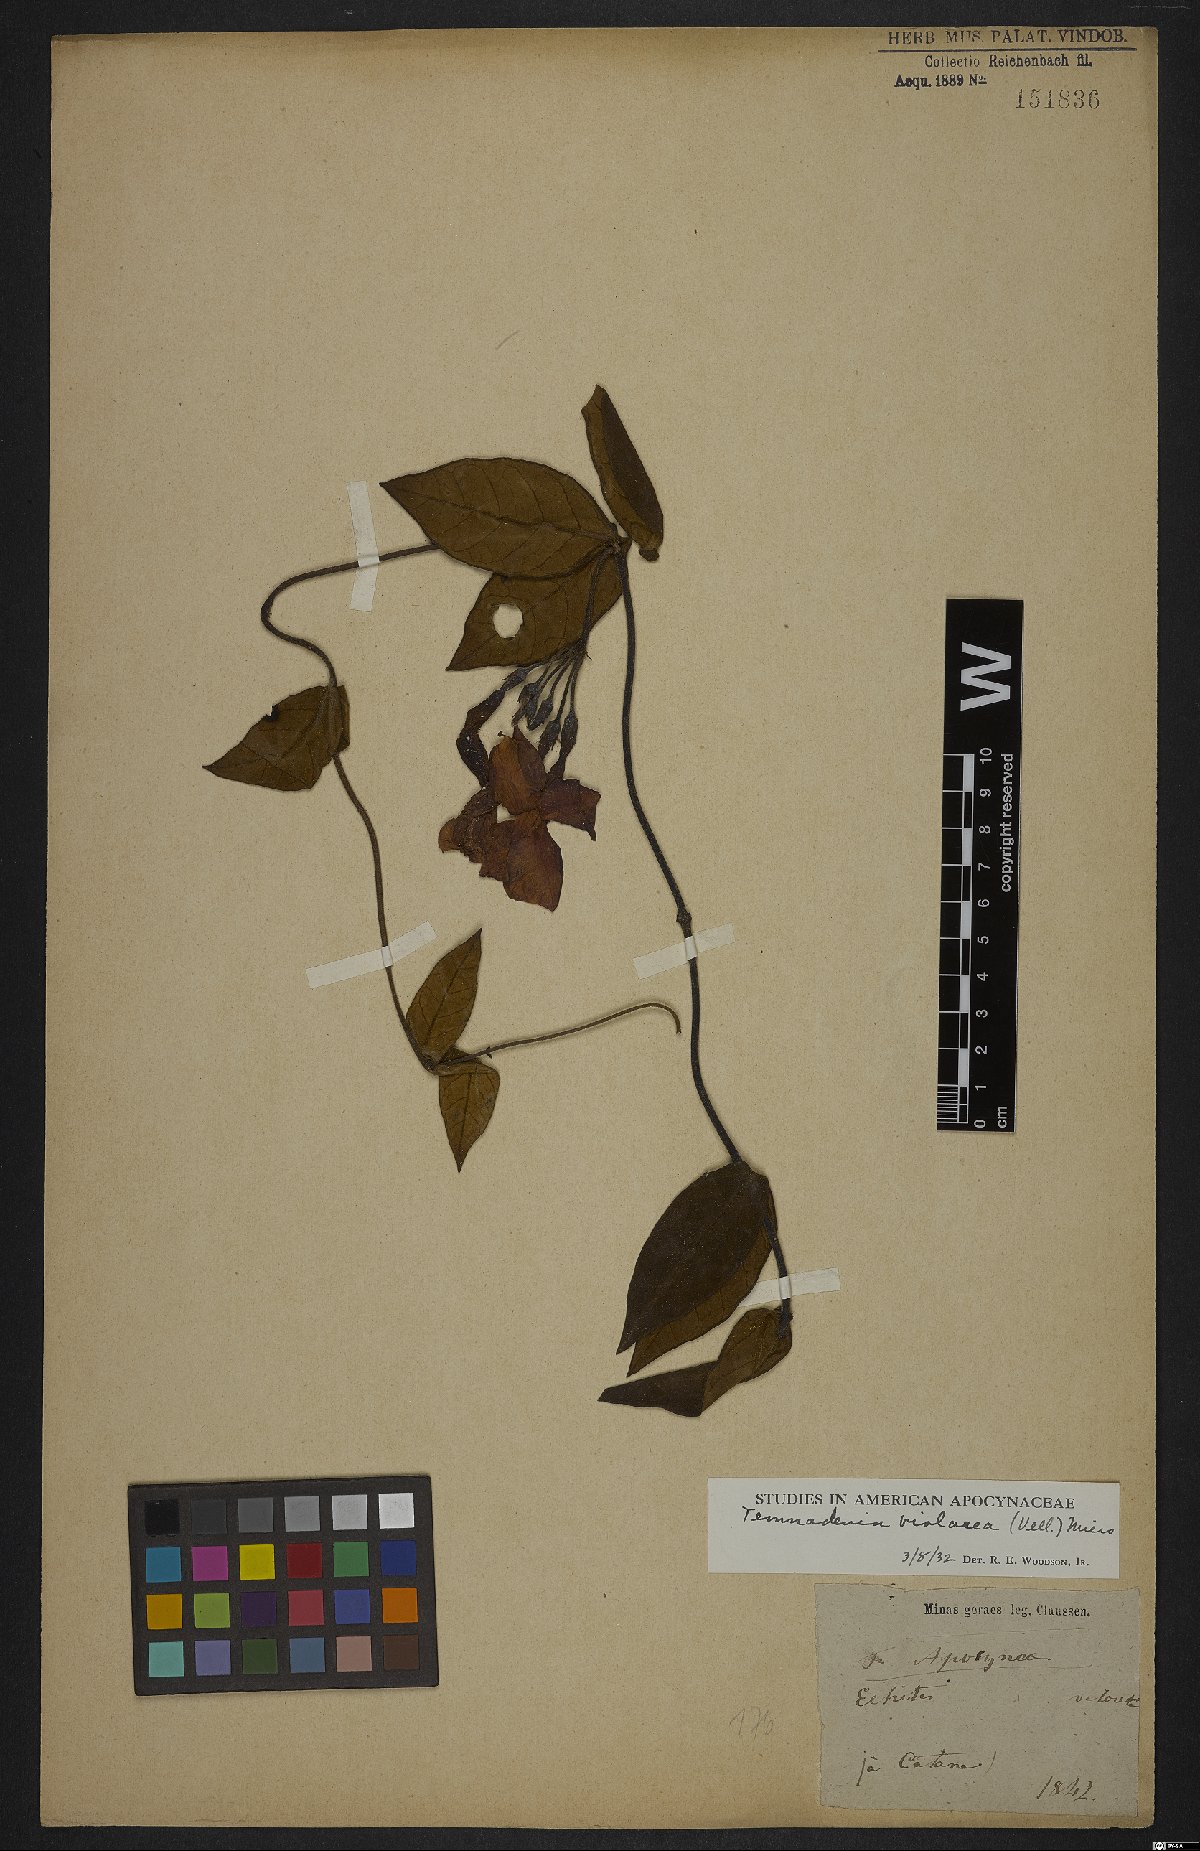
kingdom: Plantae
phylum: Tracheophyta
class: Magnoliopsida
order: Gentianales
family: Apocynaceae
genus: Temnadenia
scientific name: Temnadenia violacea
